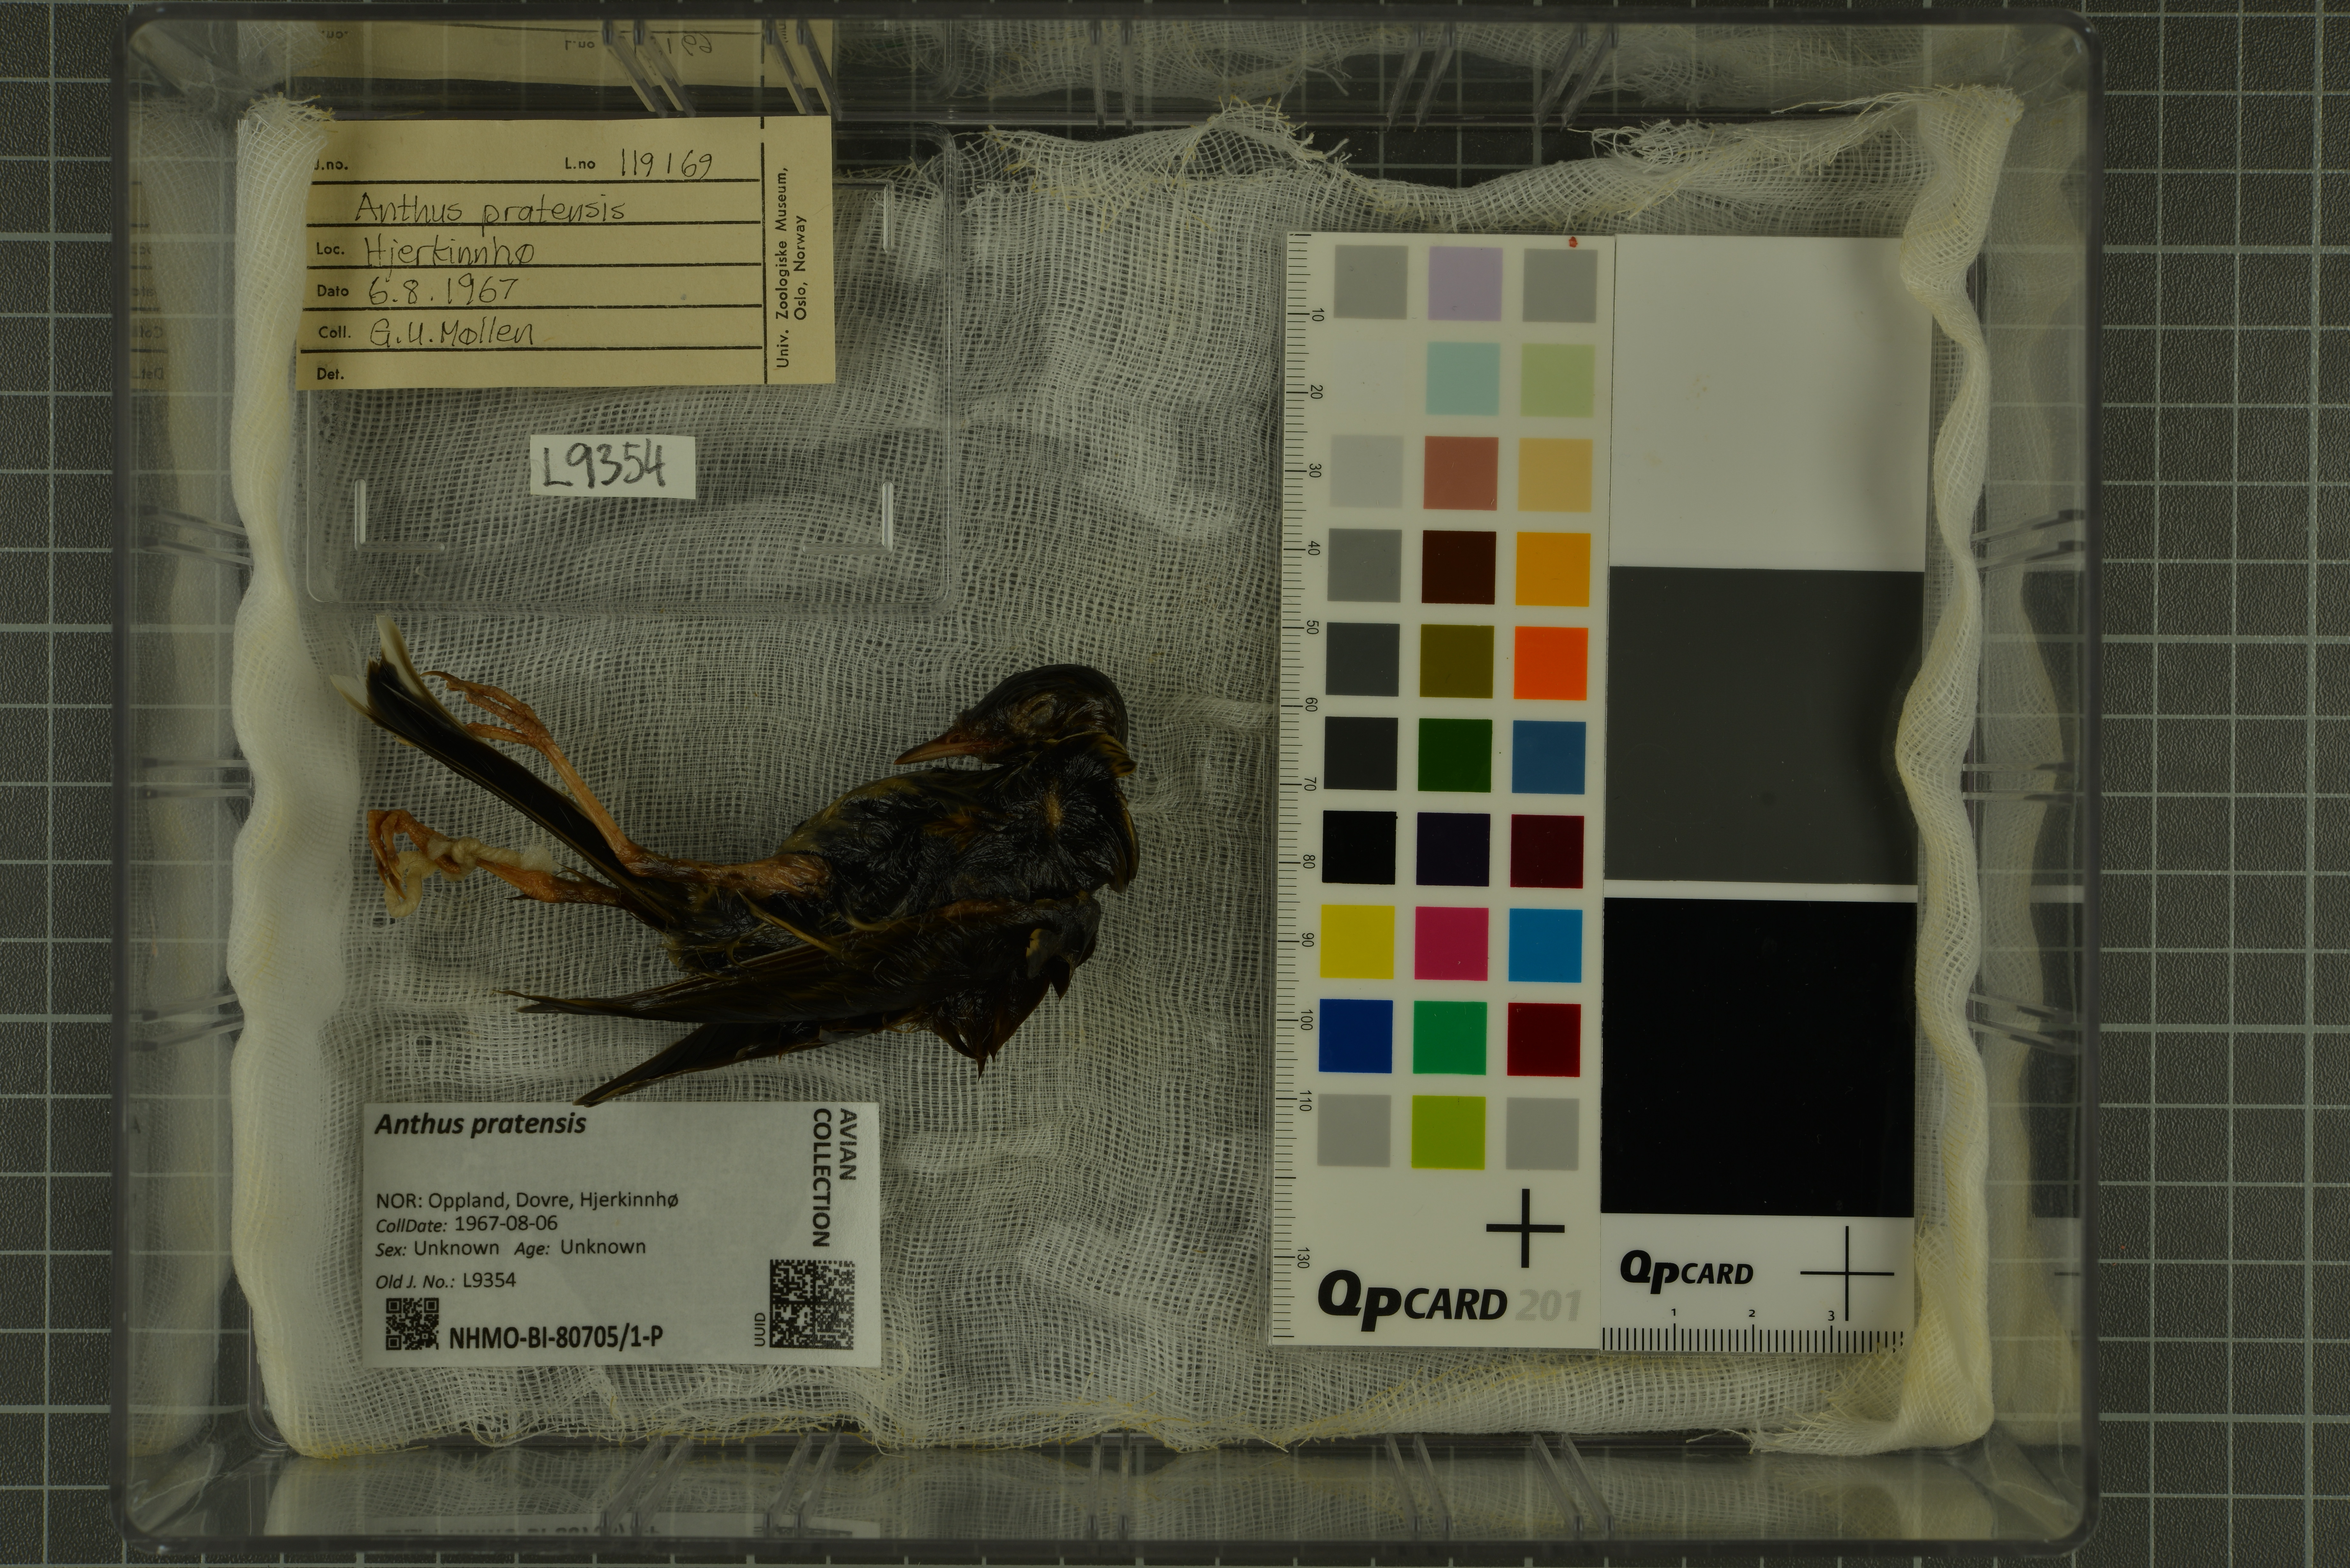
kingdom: Animalia
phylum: Chordata
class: Aves
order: Passeriformes
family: Motacillidae
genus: Anthus
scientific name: Anthus pratensis
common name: Meadow pipit
